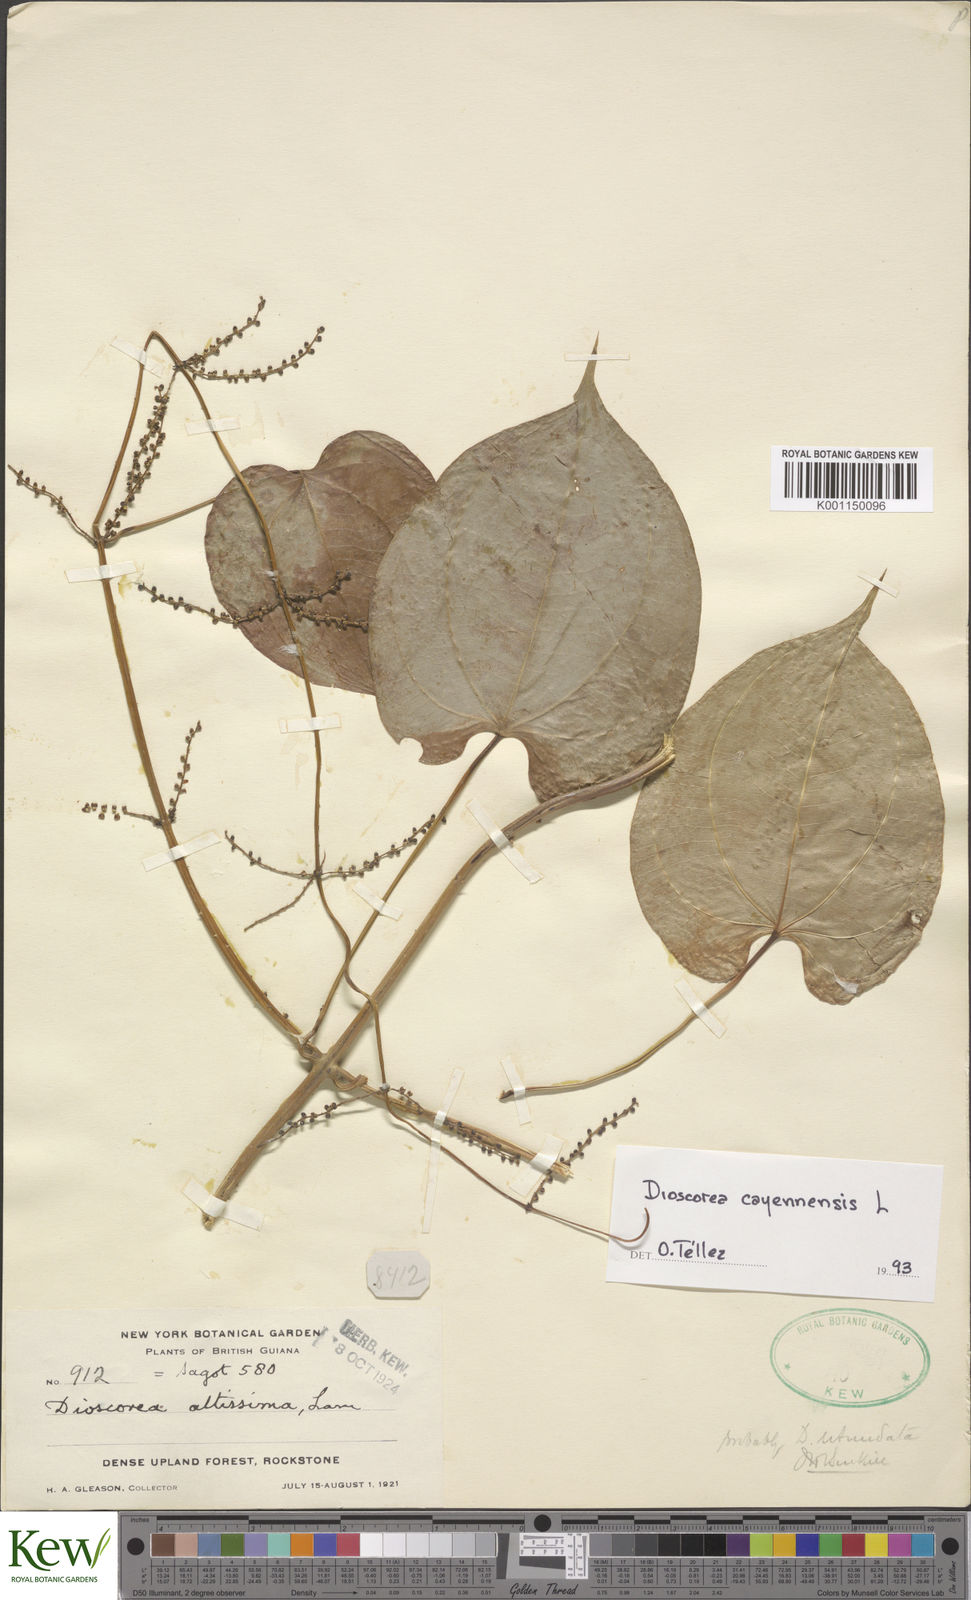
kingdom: Plantae
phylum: Tracheophyta
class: Liliopsida
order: Dioscoreales
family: Dioscoreaceae
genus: Dioscorea
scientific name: Dioscorea cayenensis
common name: Attoto yam
